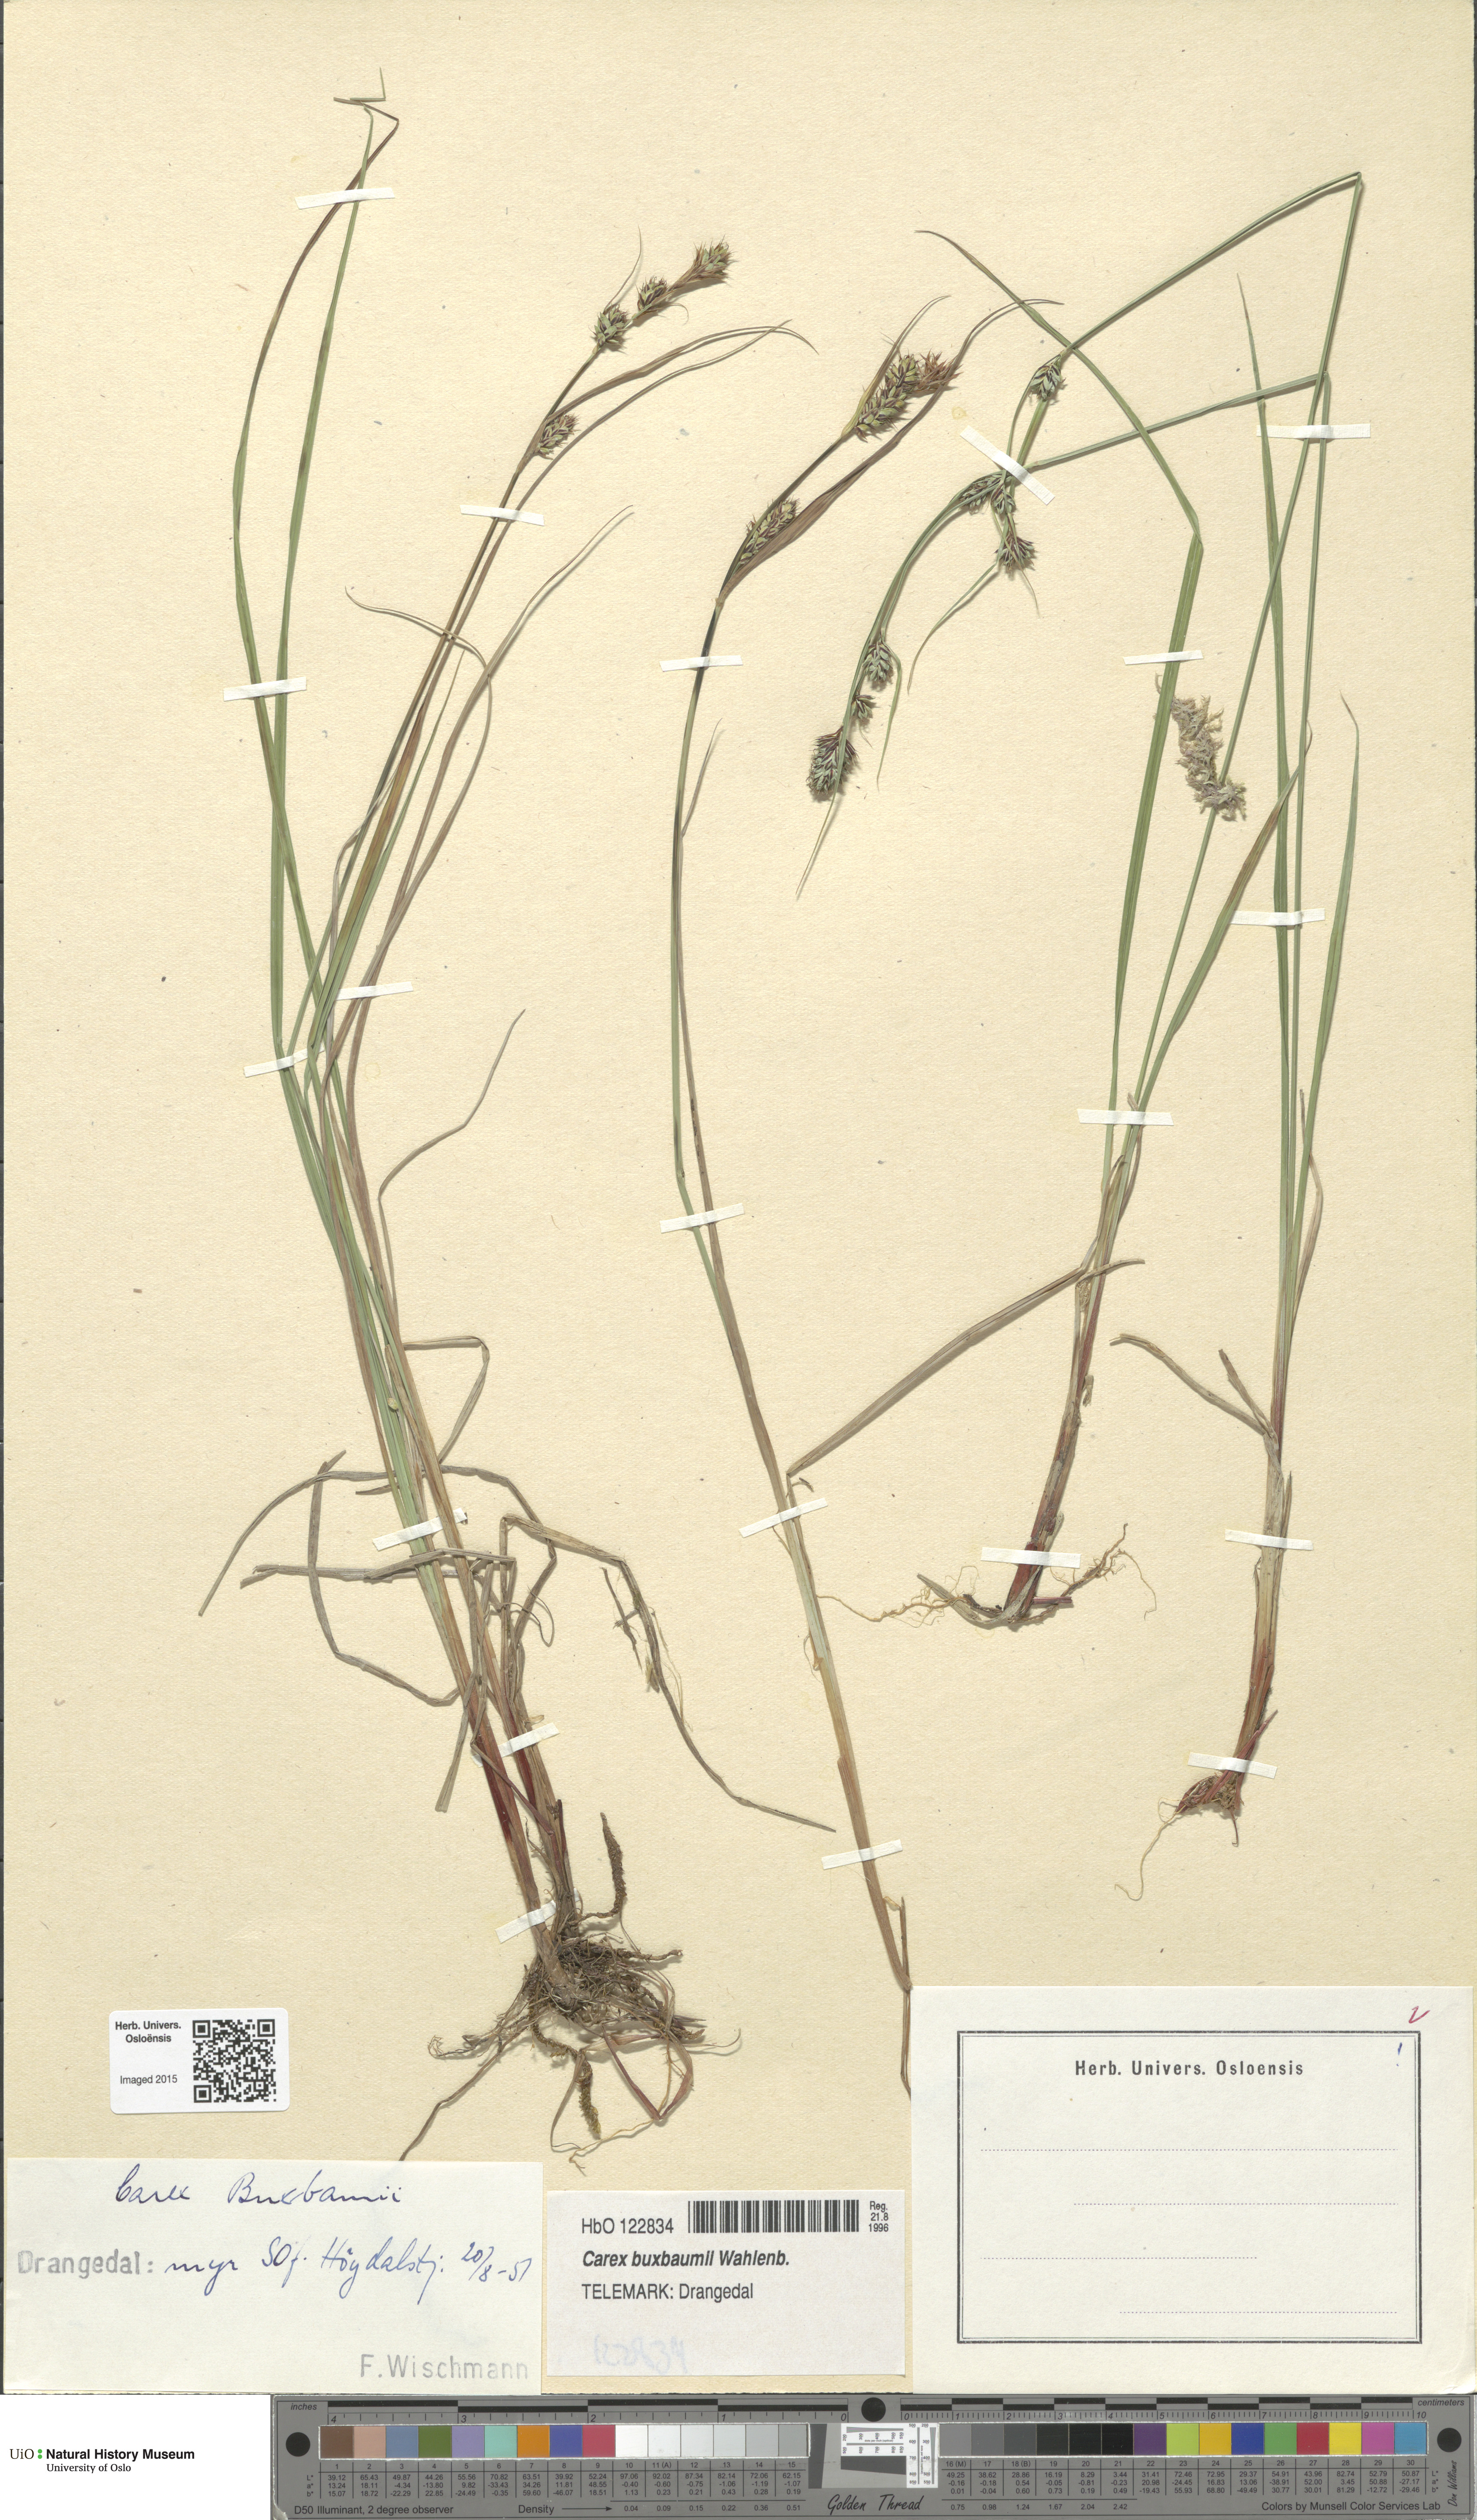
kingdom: Plantae
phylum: Tracheophyta
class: Liliopsida
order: Poales
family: Cyperaceae
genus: Carex
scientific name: Carex buxbaumii
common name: Club sedge
